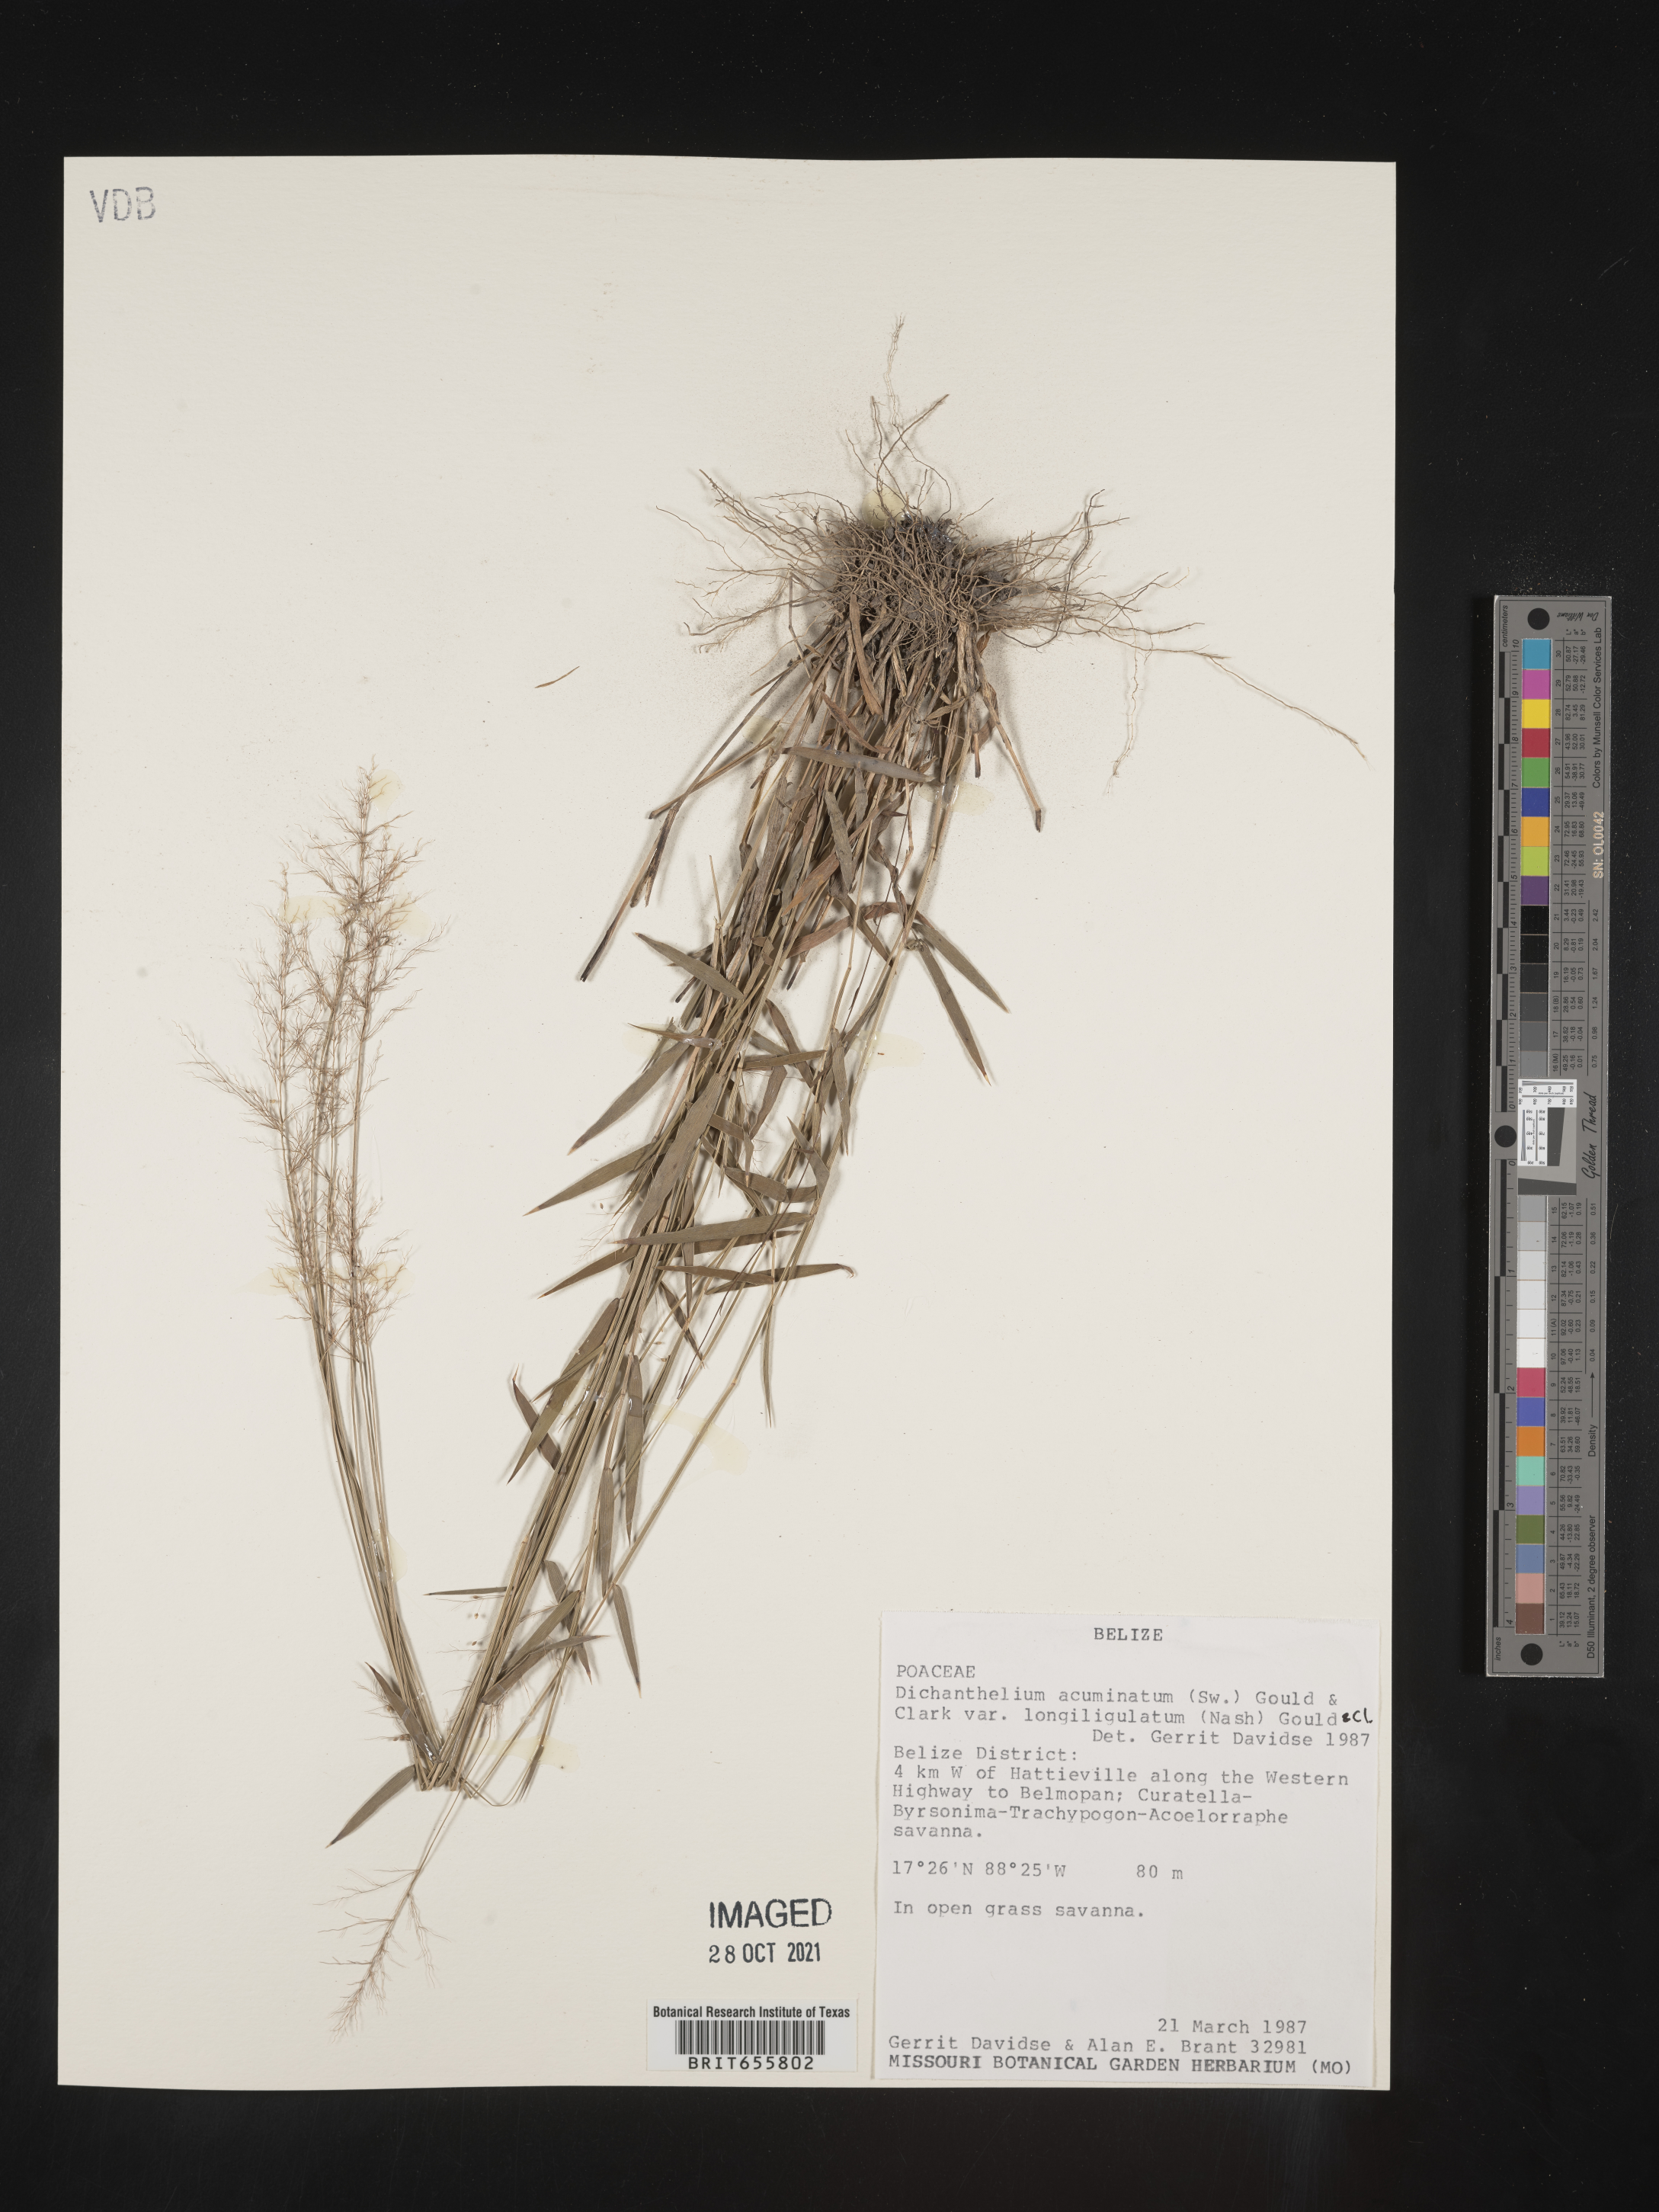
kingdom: Plantae
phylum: Tracheophyta
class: Liliopsida
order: Poales
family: Poaceae
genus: Panicum
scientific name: Panicum
